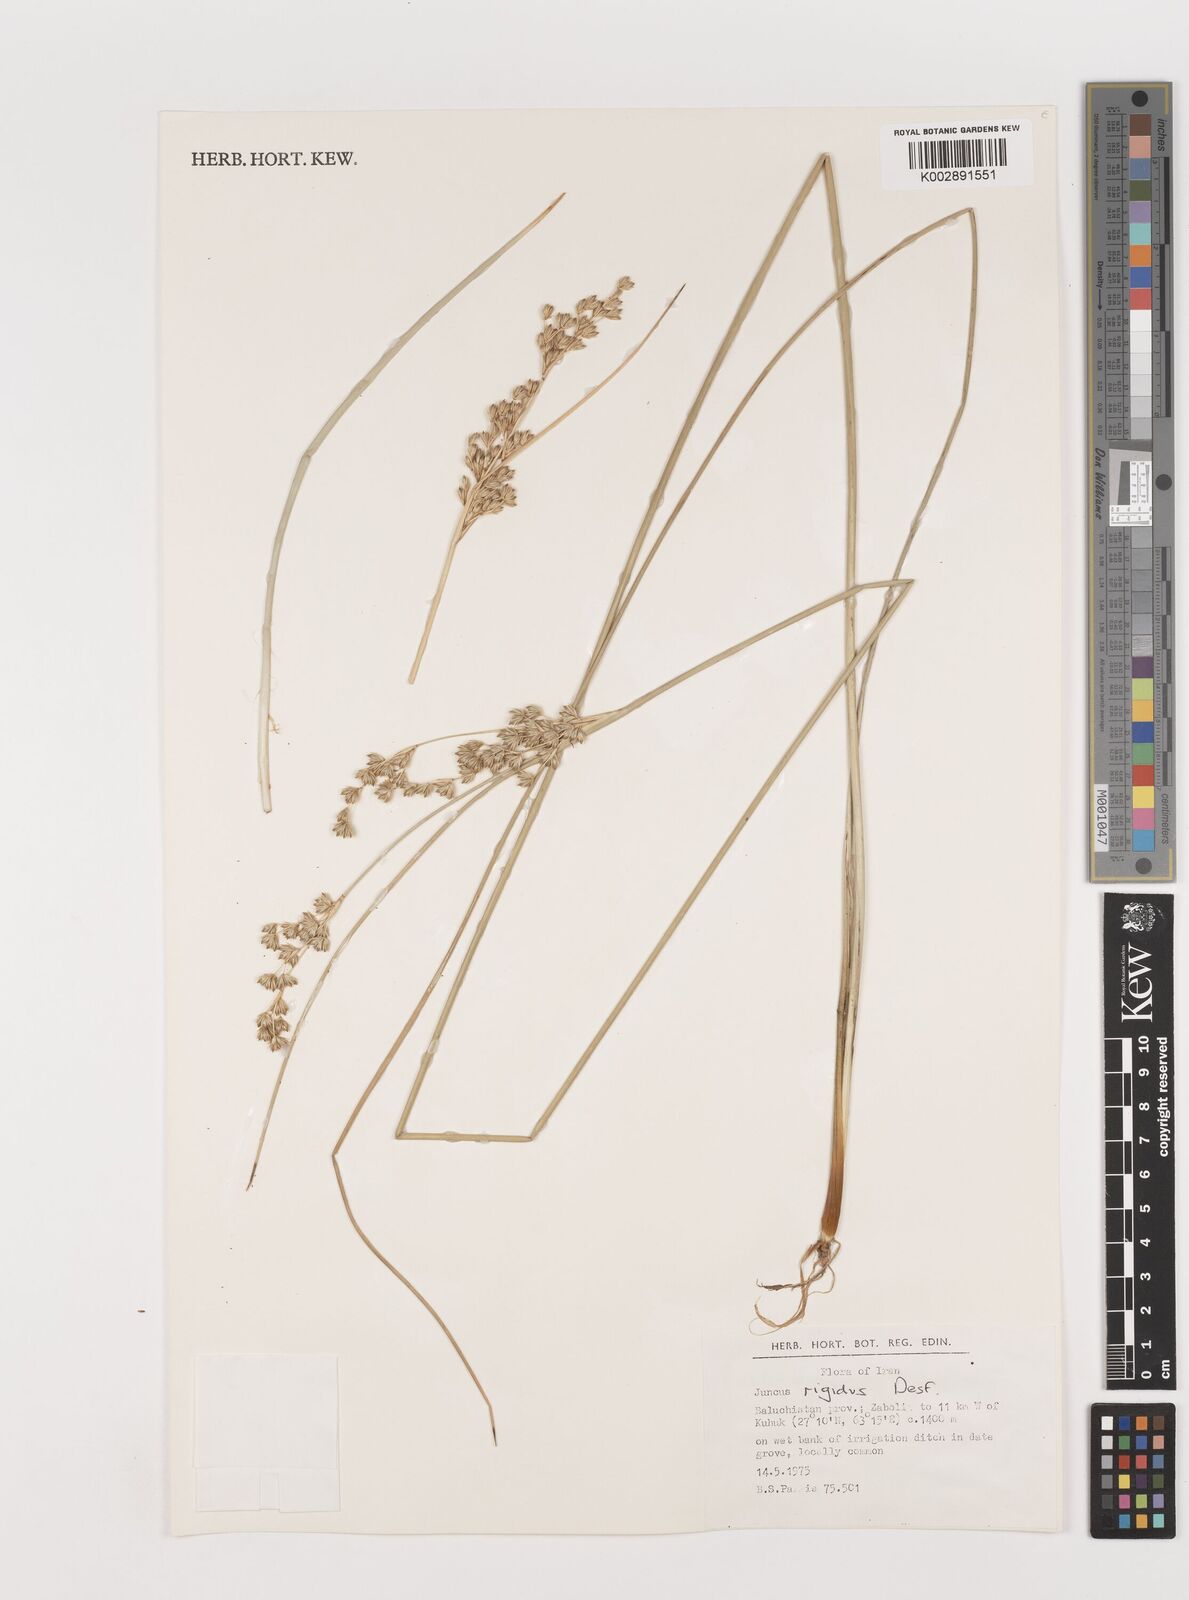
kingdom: Plantae
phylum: Tracheophyta
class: Liliopsida
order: Poales
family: Juncaceae
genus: Juncus
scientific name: Juncus rigidus
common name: Hard sea rush
